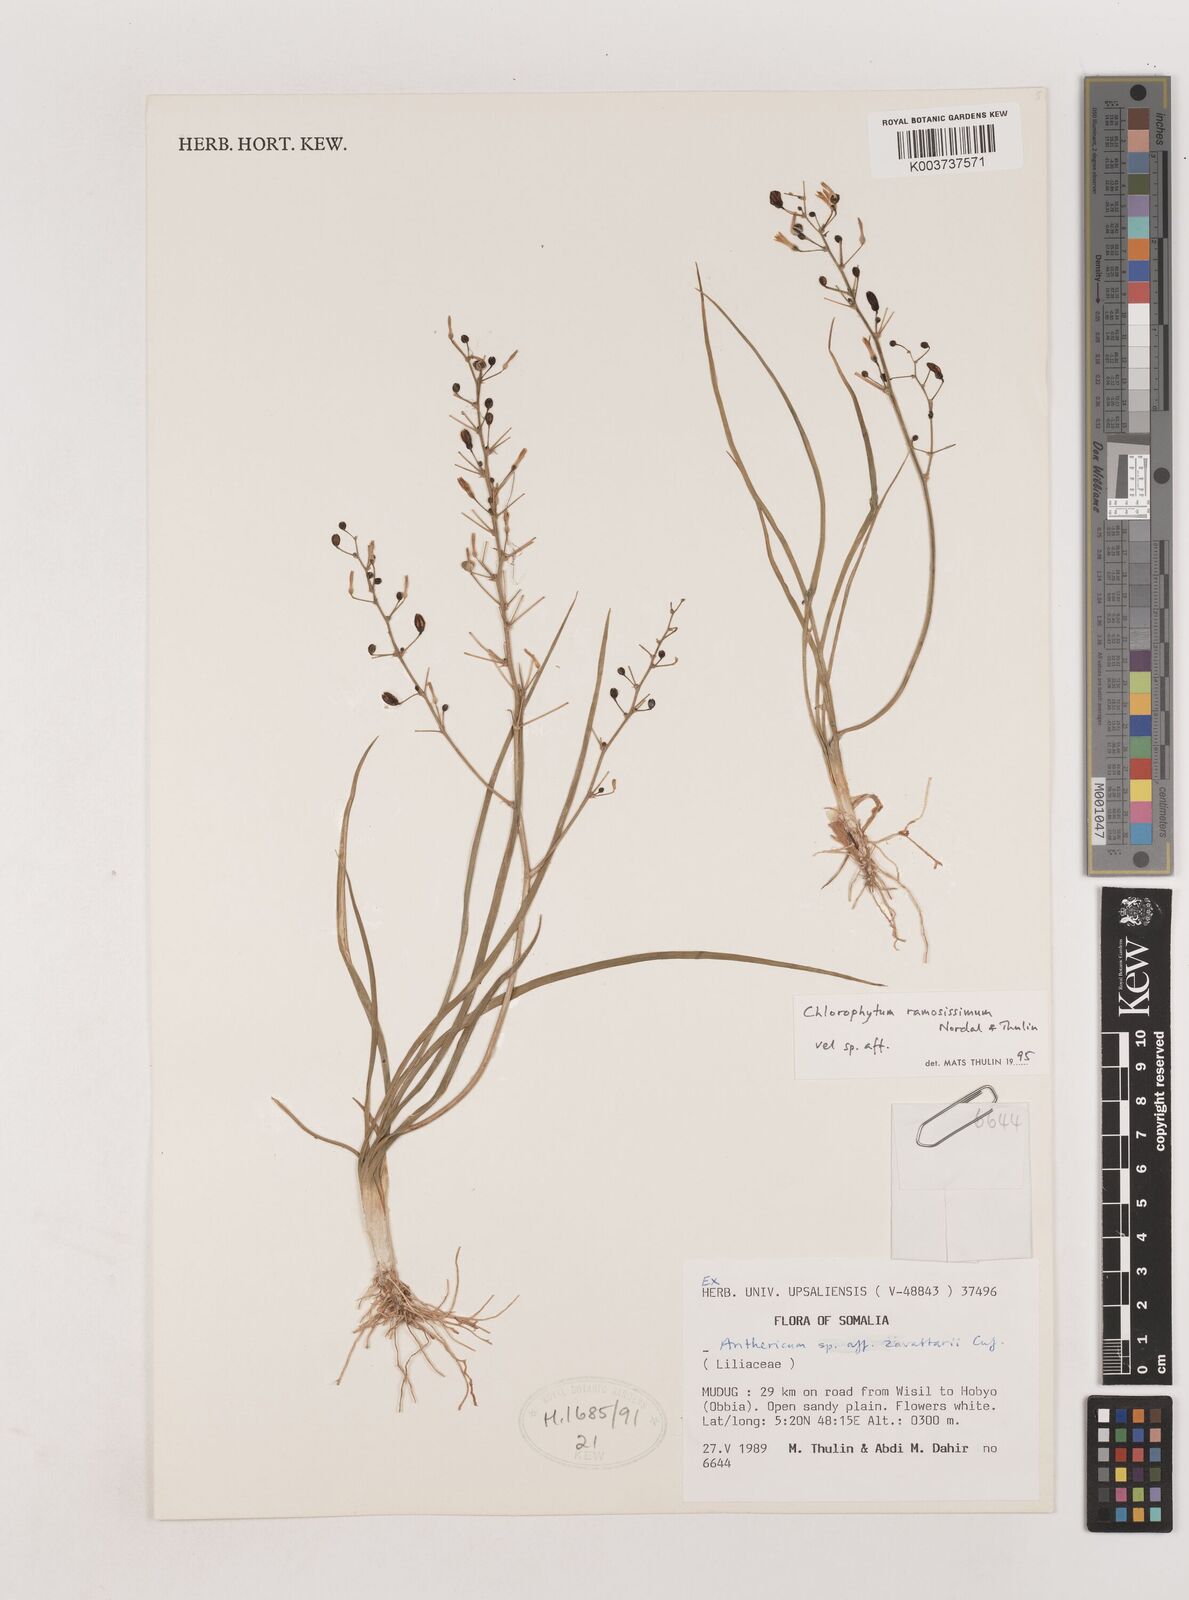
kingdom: Plantae
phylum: Tracheophyta
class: Liliopsida
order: Asparagales
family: Asparagaceae
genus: Chlorophytum
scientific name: Chlorophytum ramosissimum
